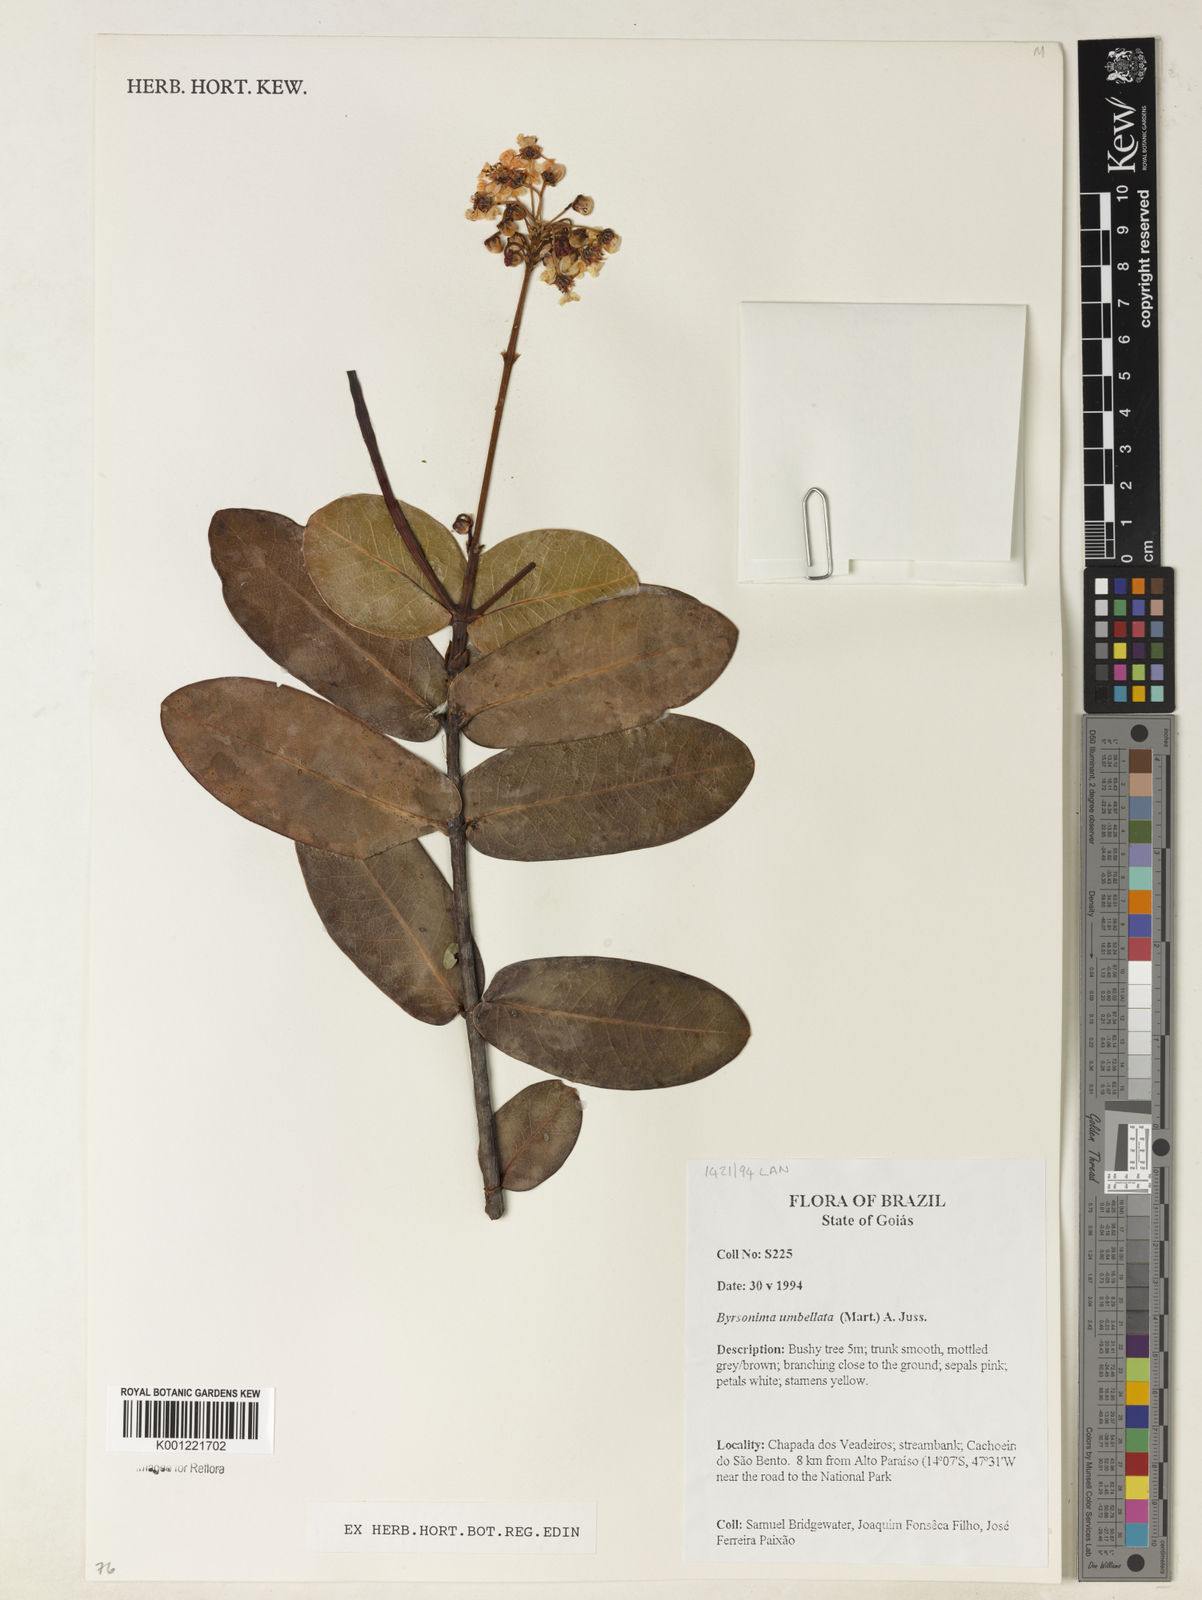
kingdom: Plantae
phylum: Tracheophyta
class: Magnoliopsida
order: Malpighiales
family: Malpighiaceae
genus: Byrsonima
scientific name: Byrsonima umbellata
